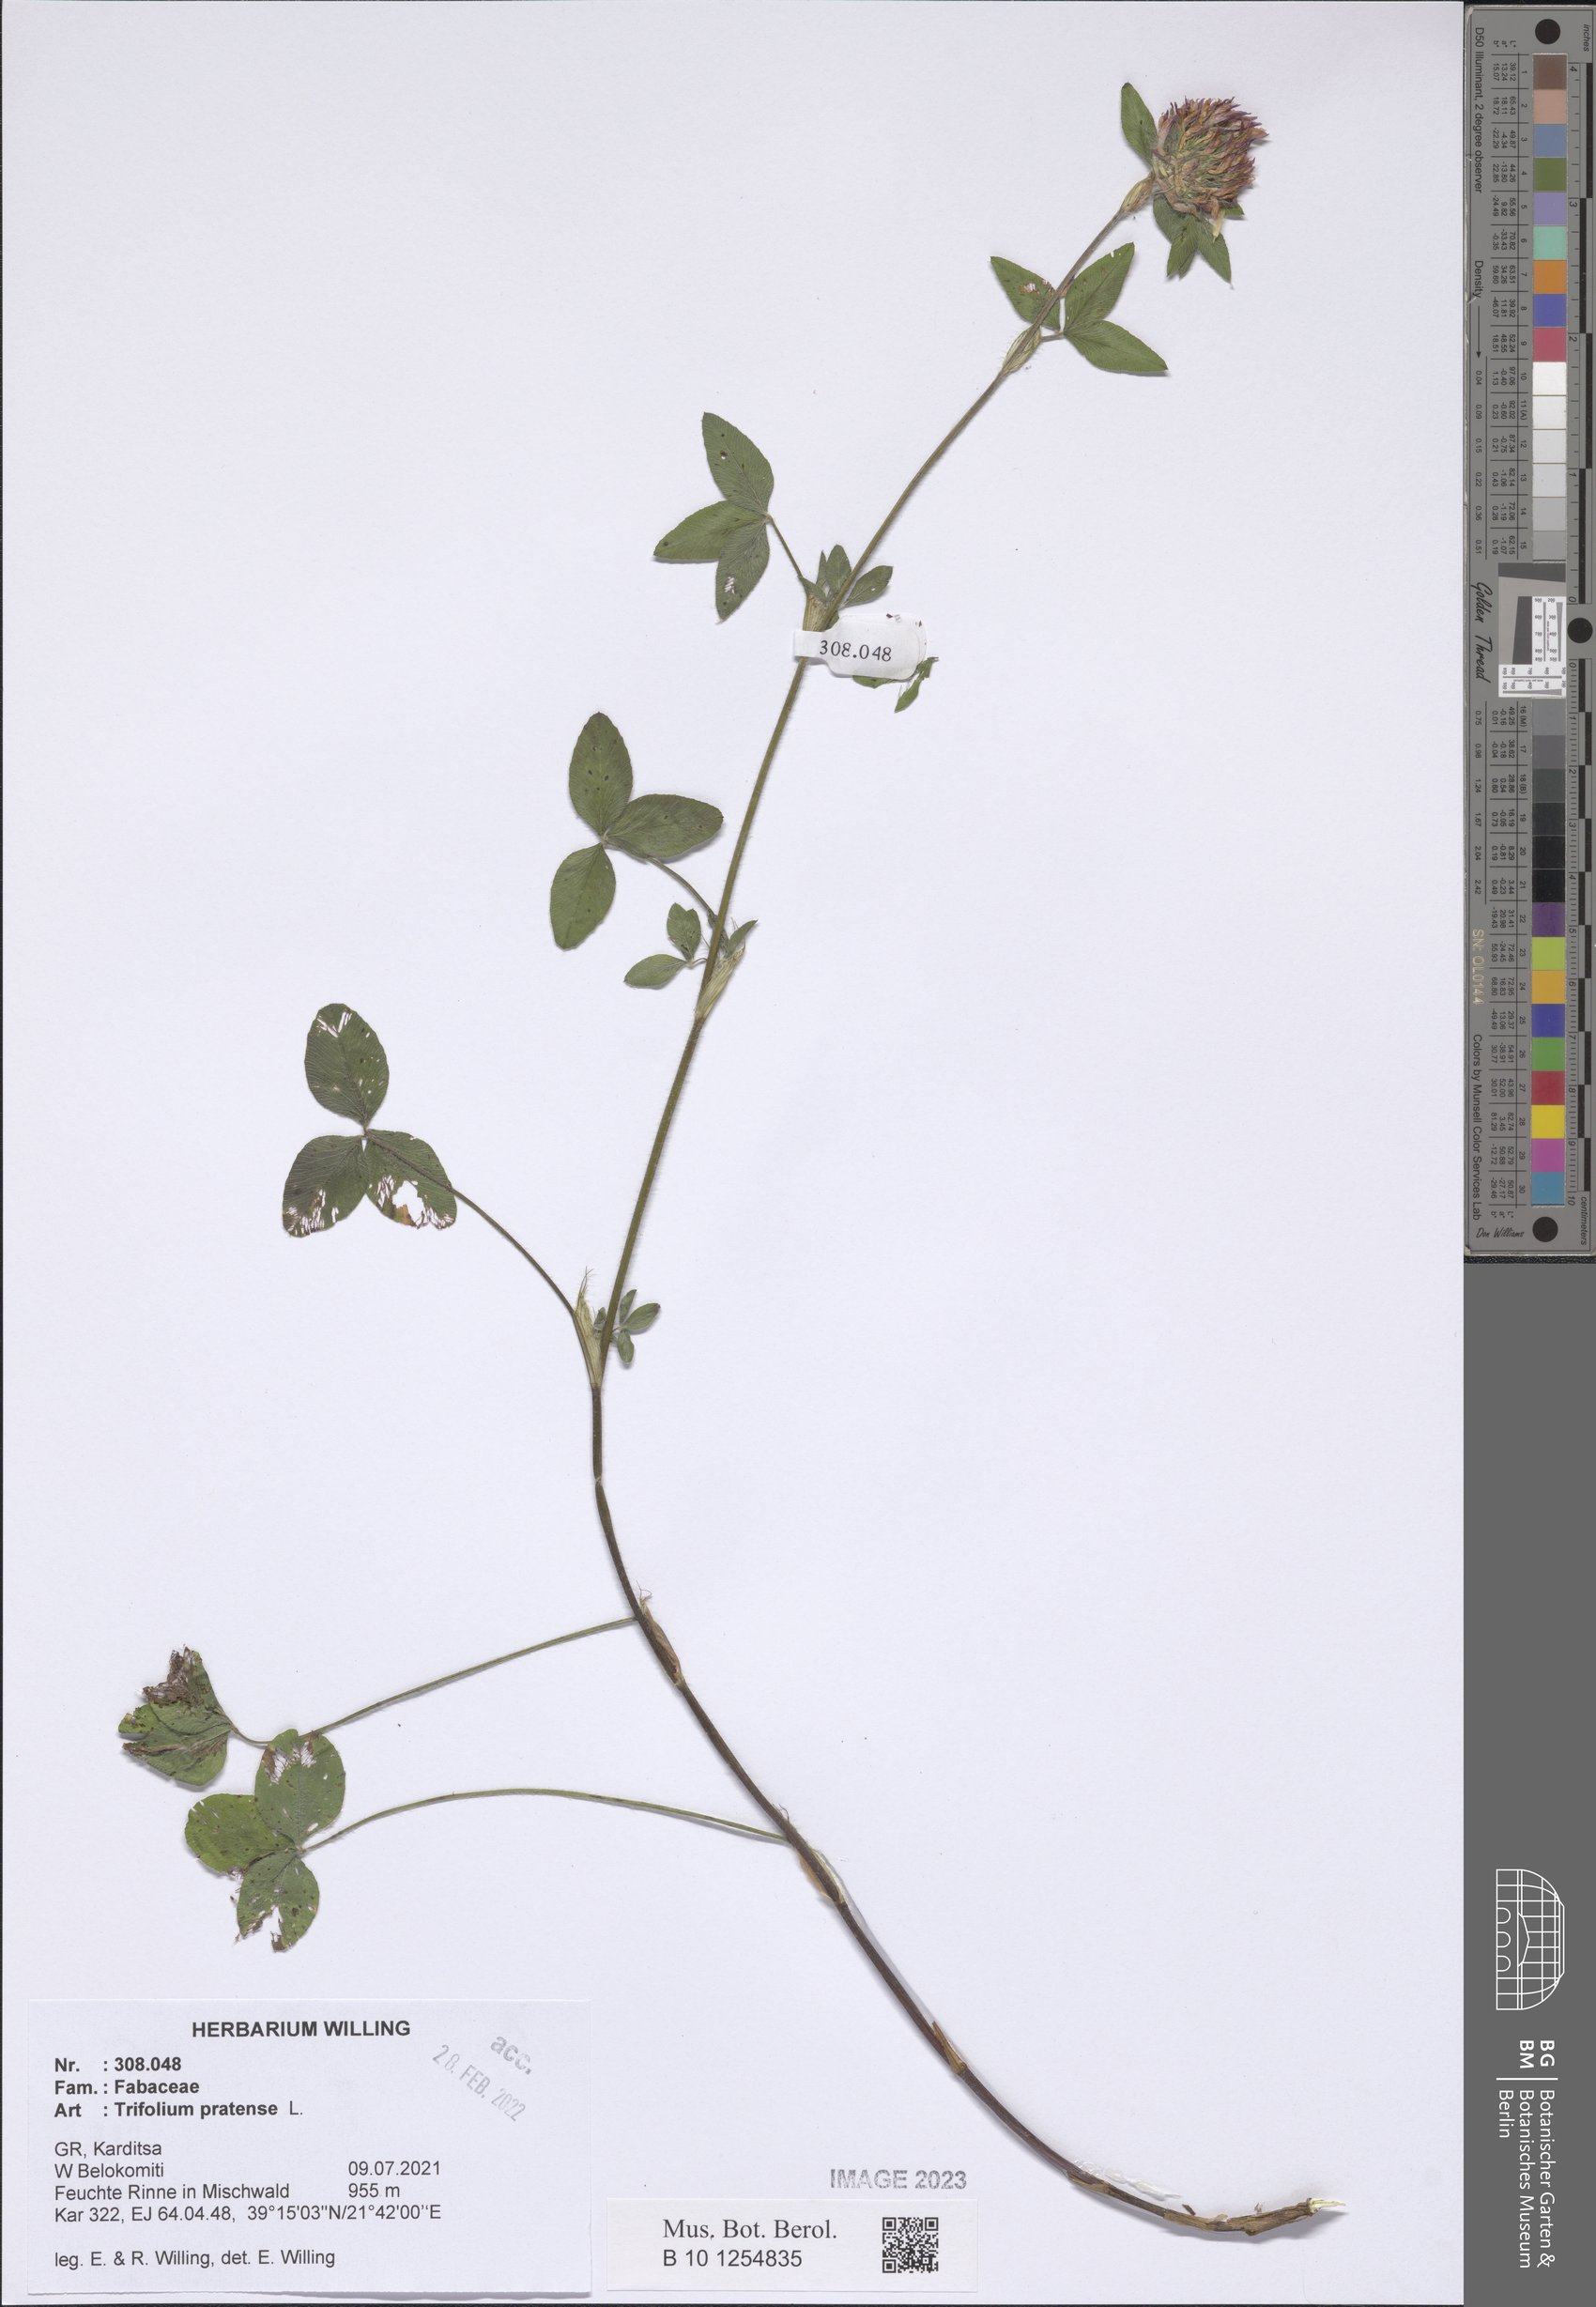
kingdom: Plantae
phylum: Tracheophyta
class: Magnoliopsida
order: Fabales
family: Fabaceae
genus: Trifolium
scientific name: Trifolium pratense
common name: Red clover
